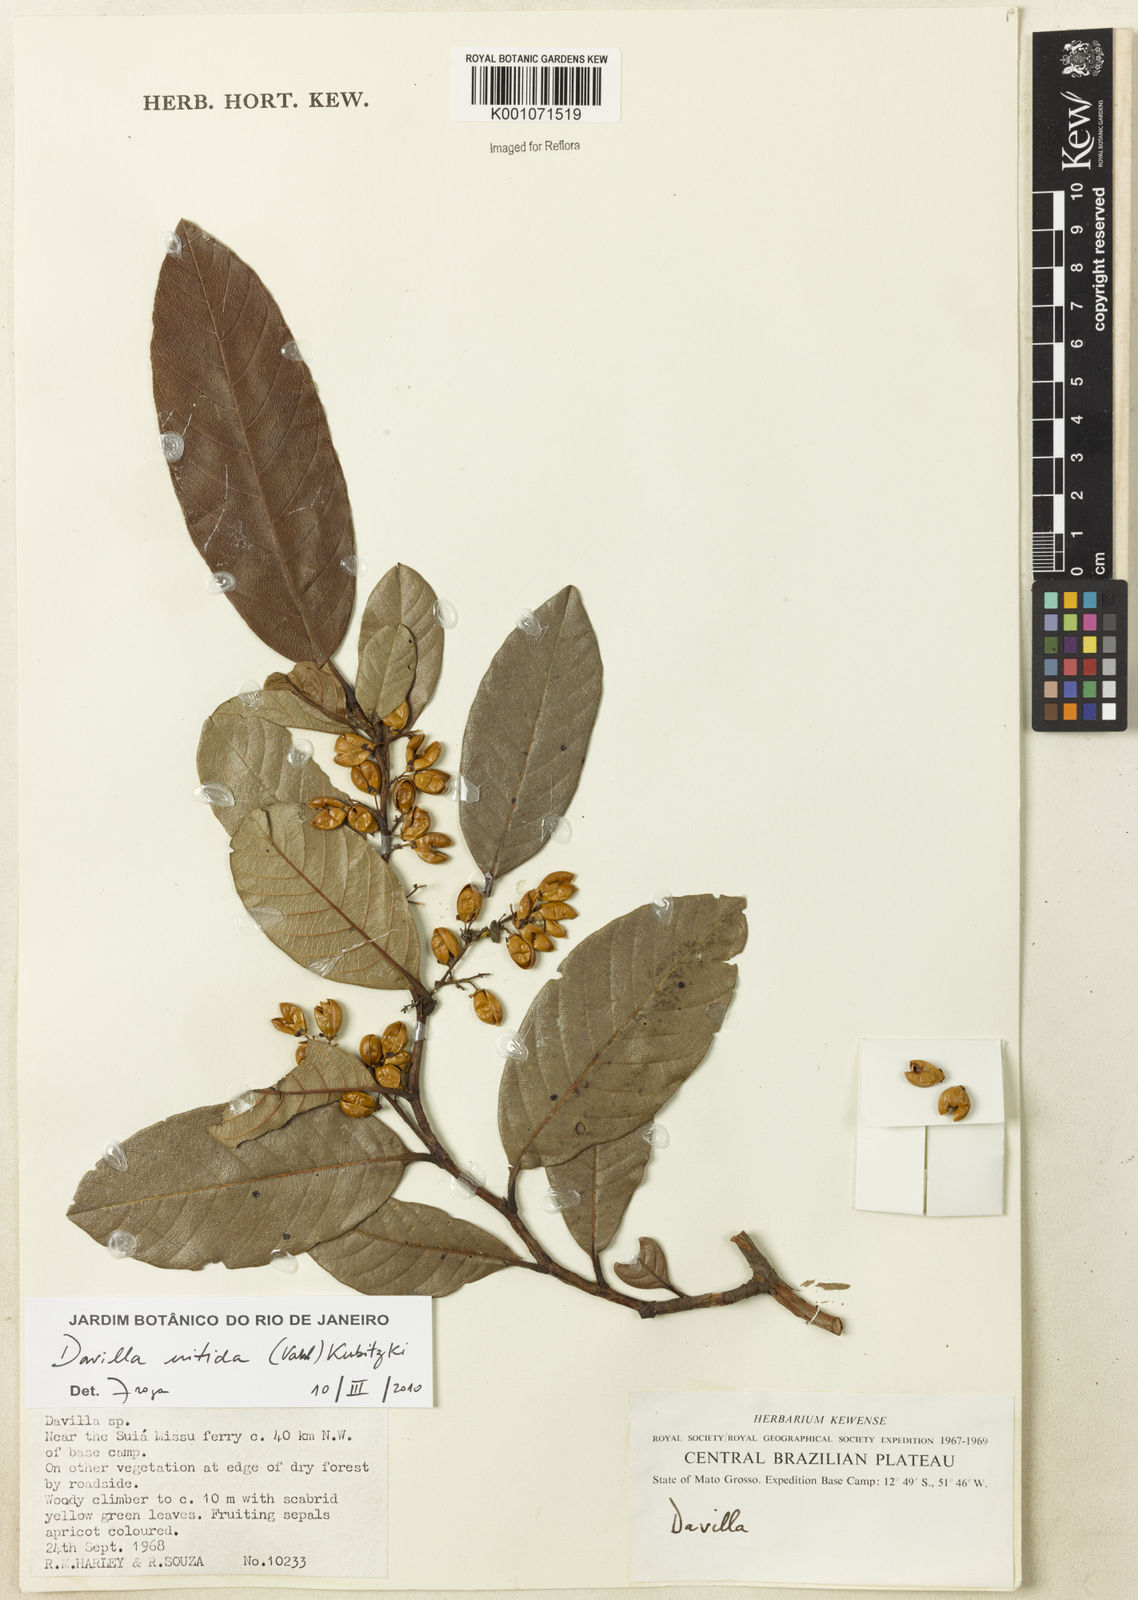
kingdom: Plantae
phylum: Tracheophyta
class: Magnoliopsida
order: Dilleniales
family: Dilleniaceae
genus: Davilla
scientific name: Davilla nitida
